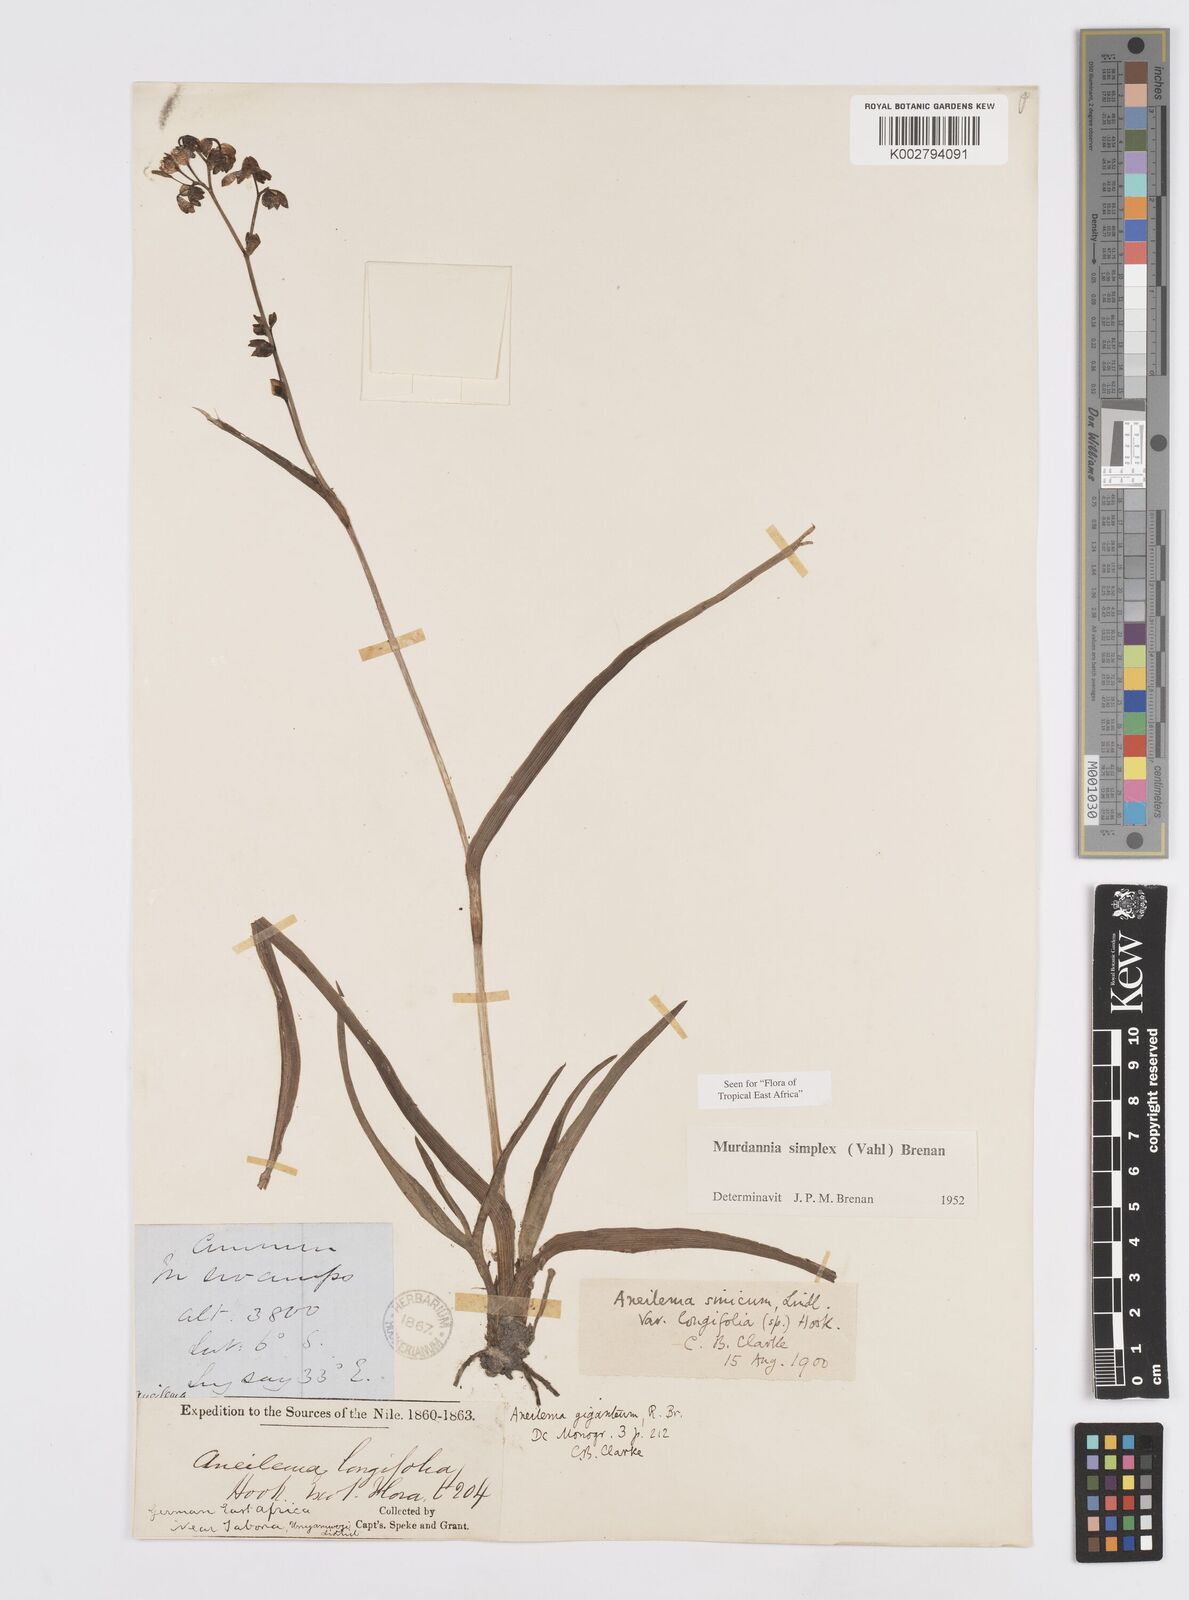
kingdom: Plantae
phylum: Tracheophyta
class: Liliopsida
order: Commelinales
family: Commelinaceae
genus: Murdannia
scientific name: Murdannia simplex
